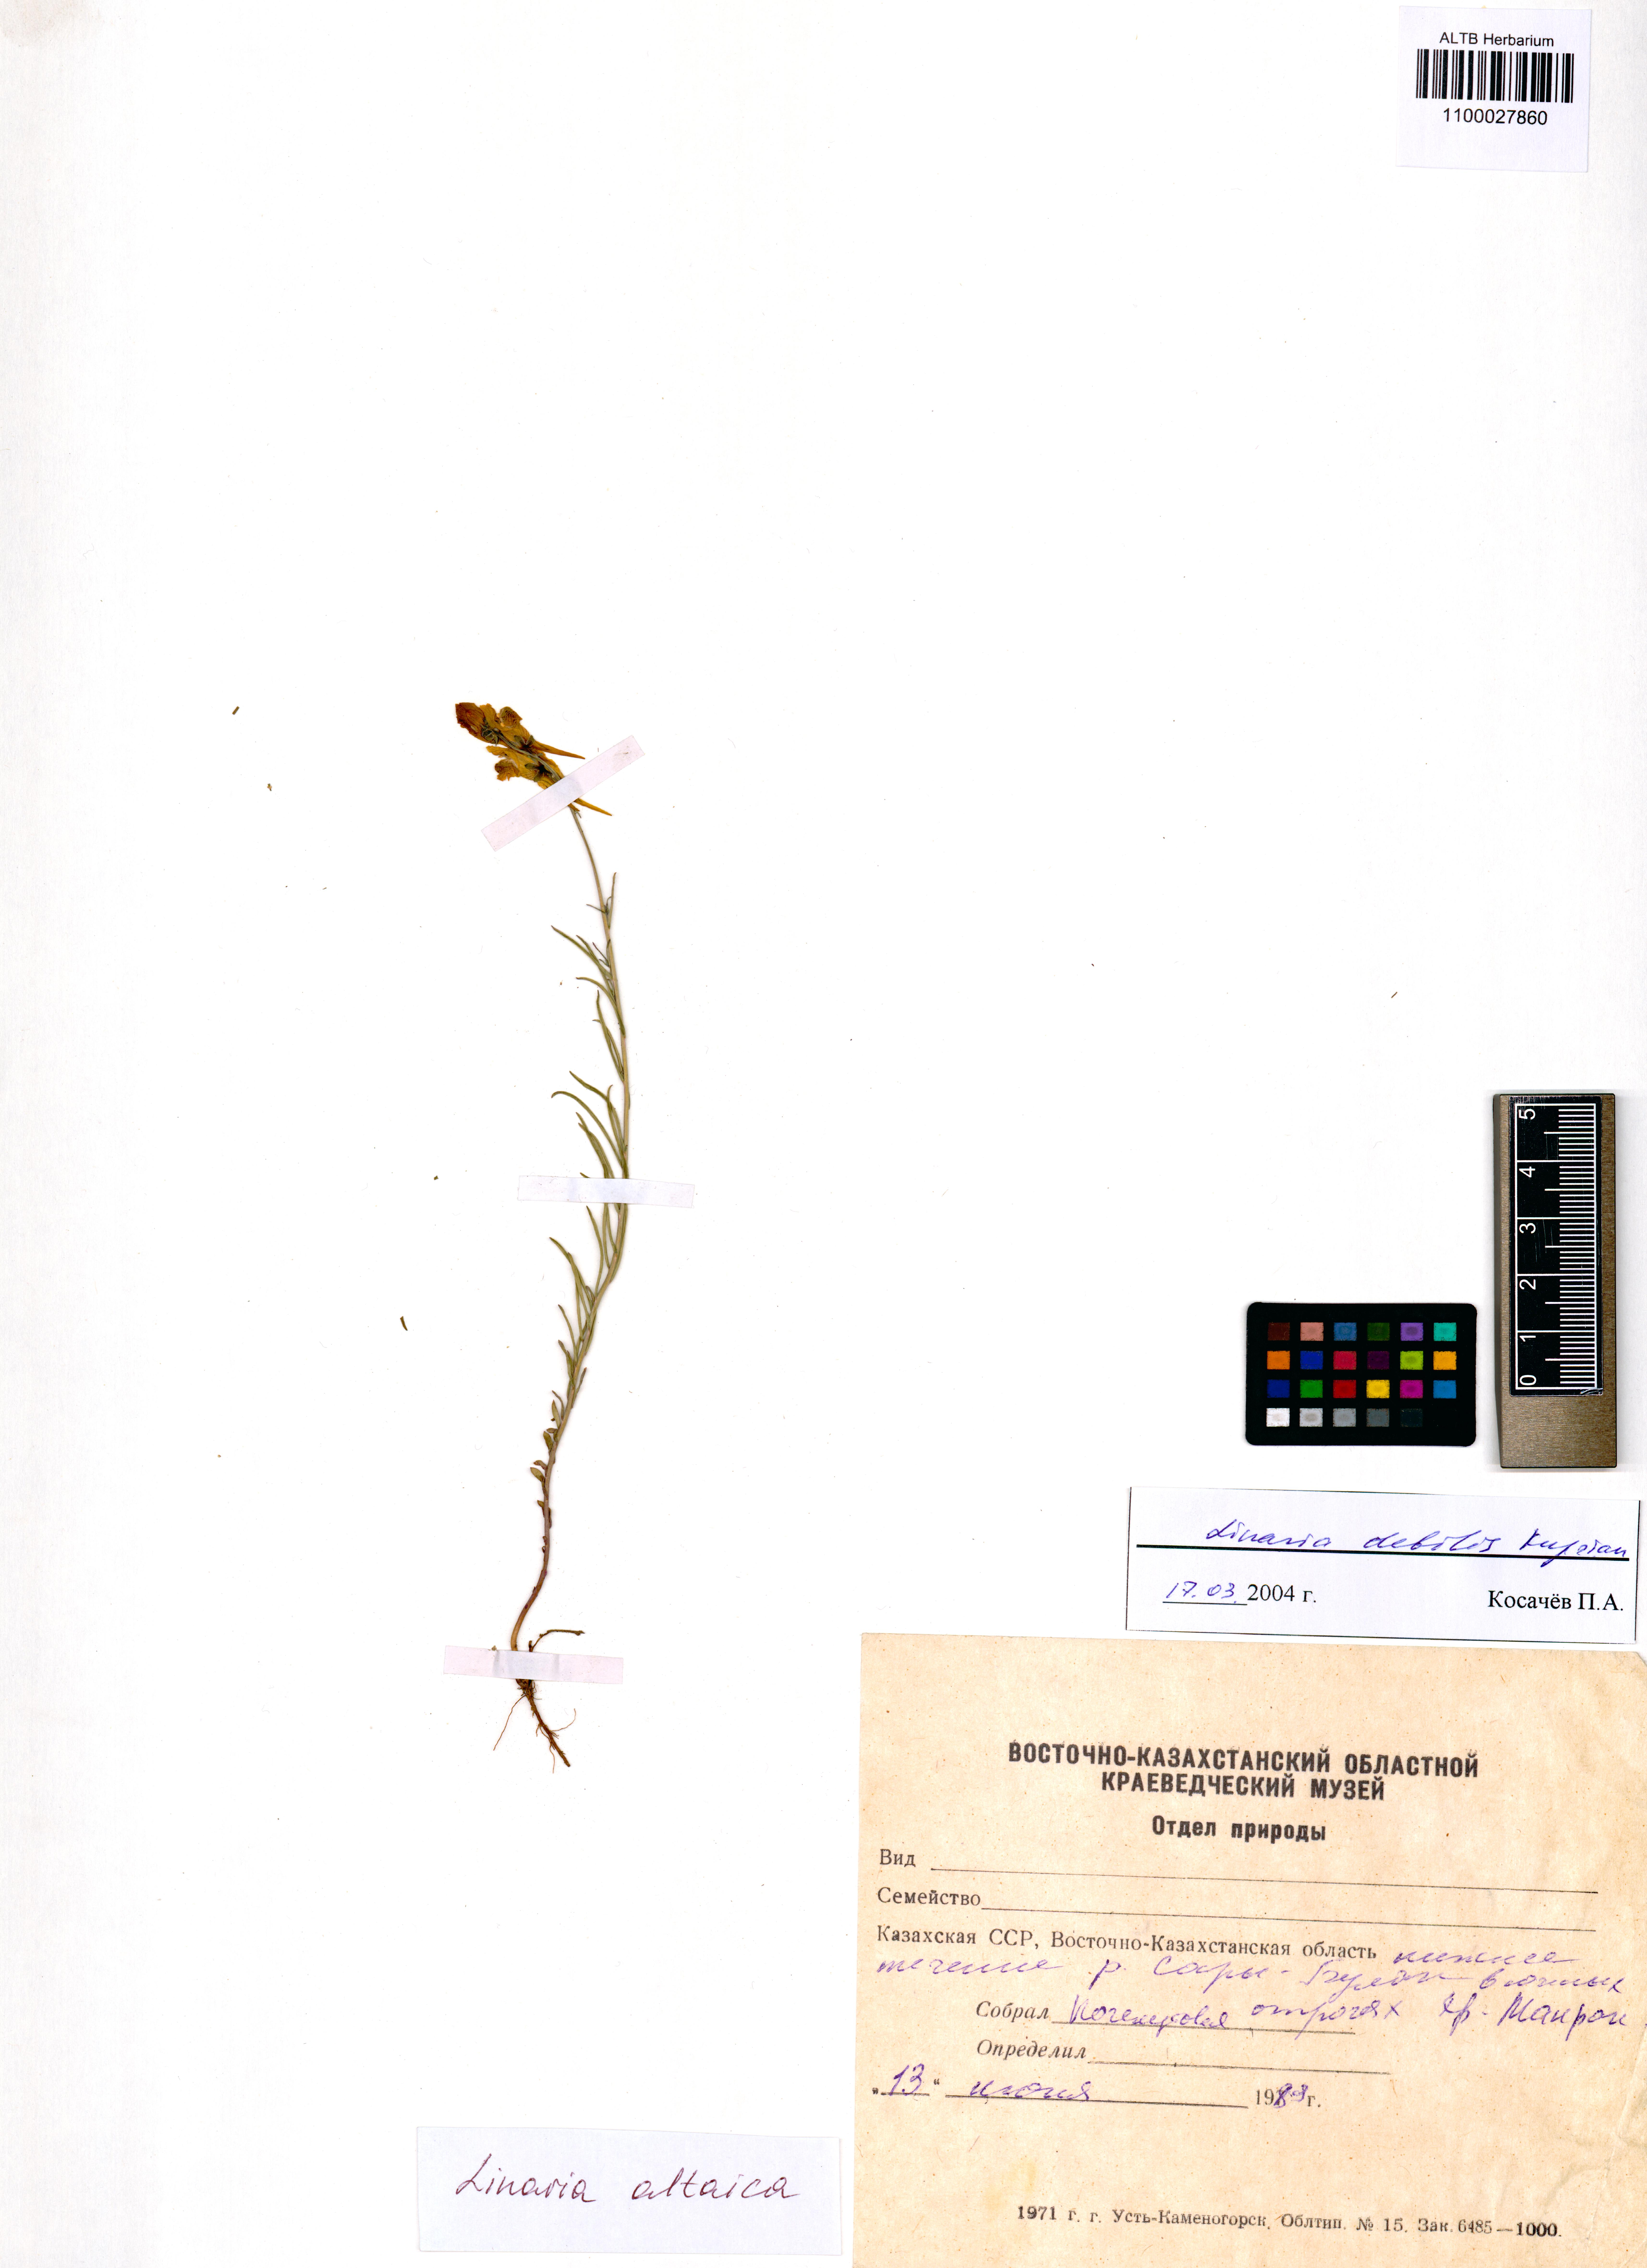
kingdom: Plantae
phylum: Tracheophyta
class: Magnoliopsida
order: Lamiales
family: Plantaginaceae
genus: Linaria
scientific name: Linaria altaica
